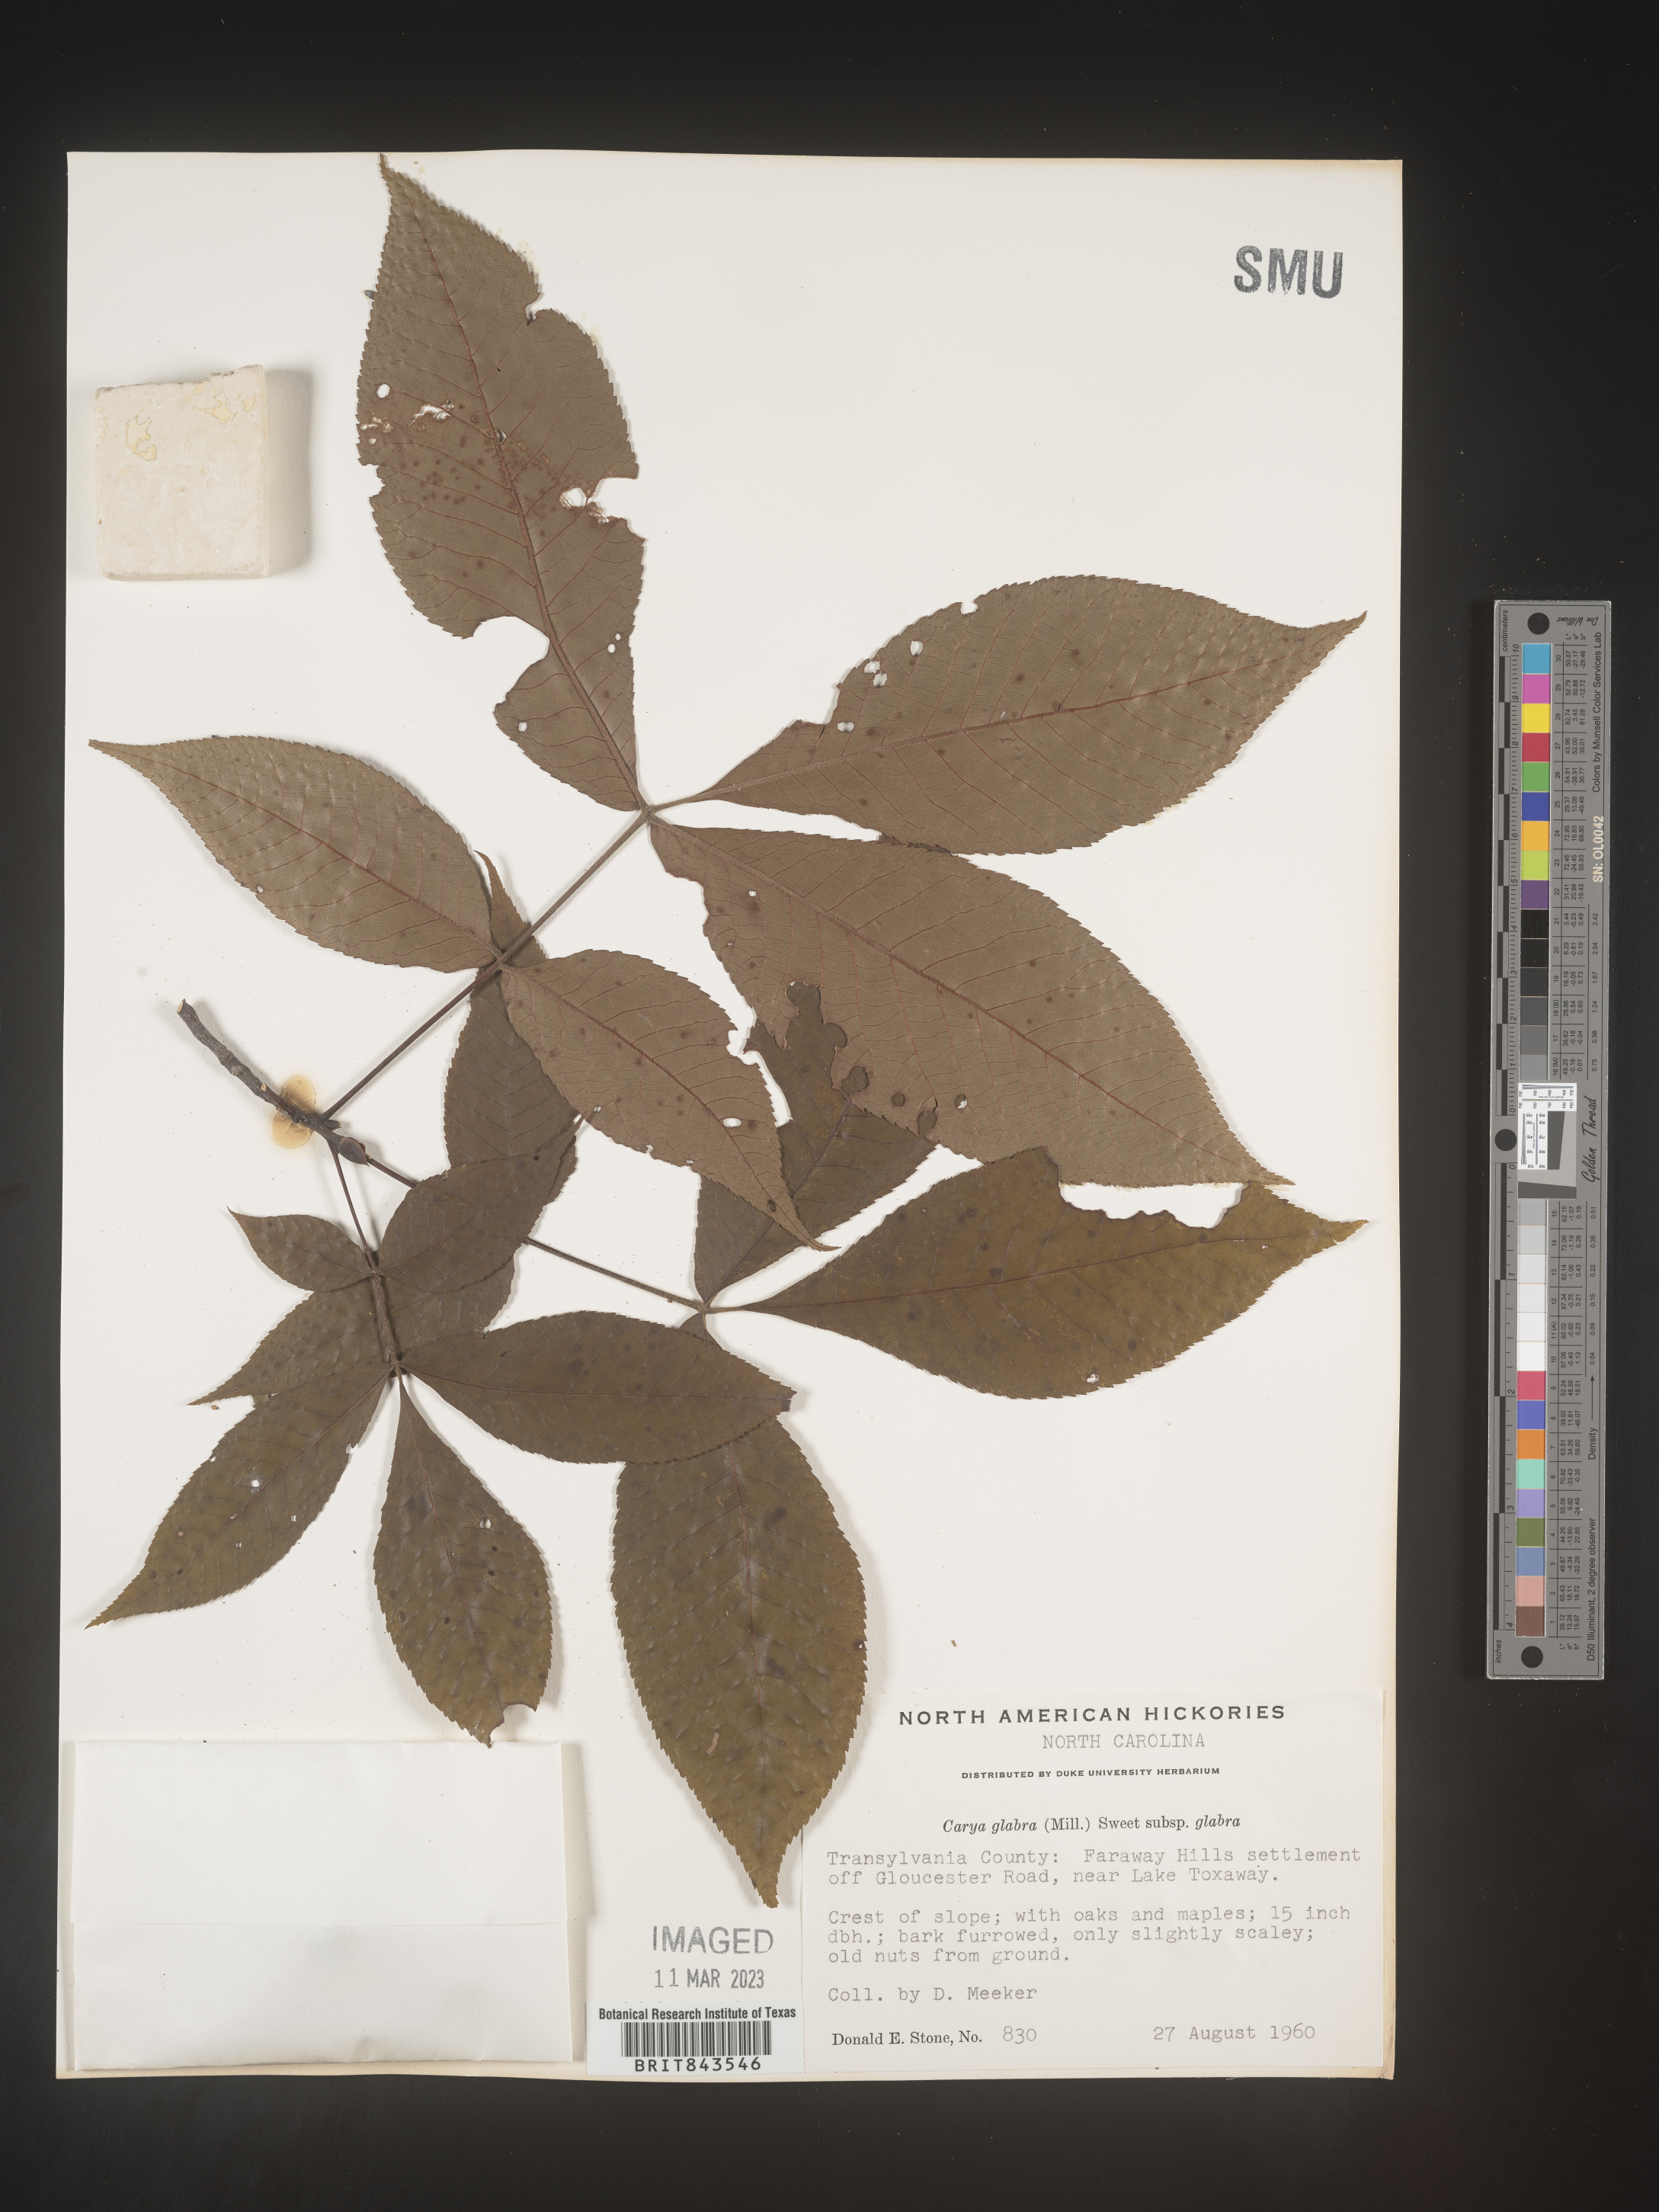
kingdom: Plantae
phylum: Tracheophyta
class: Magnoliopsida
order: Fagales
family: Juglandaceae
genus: Carya
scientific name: Carya glabra
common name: Pignut hickory
